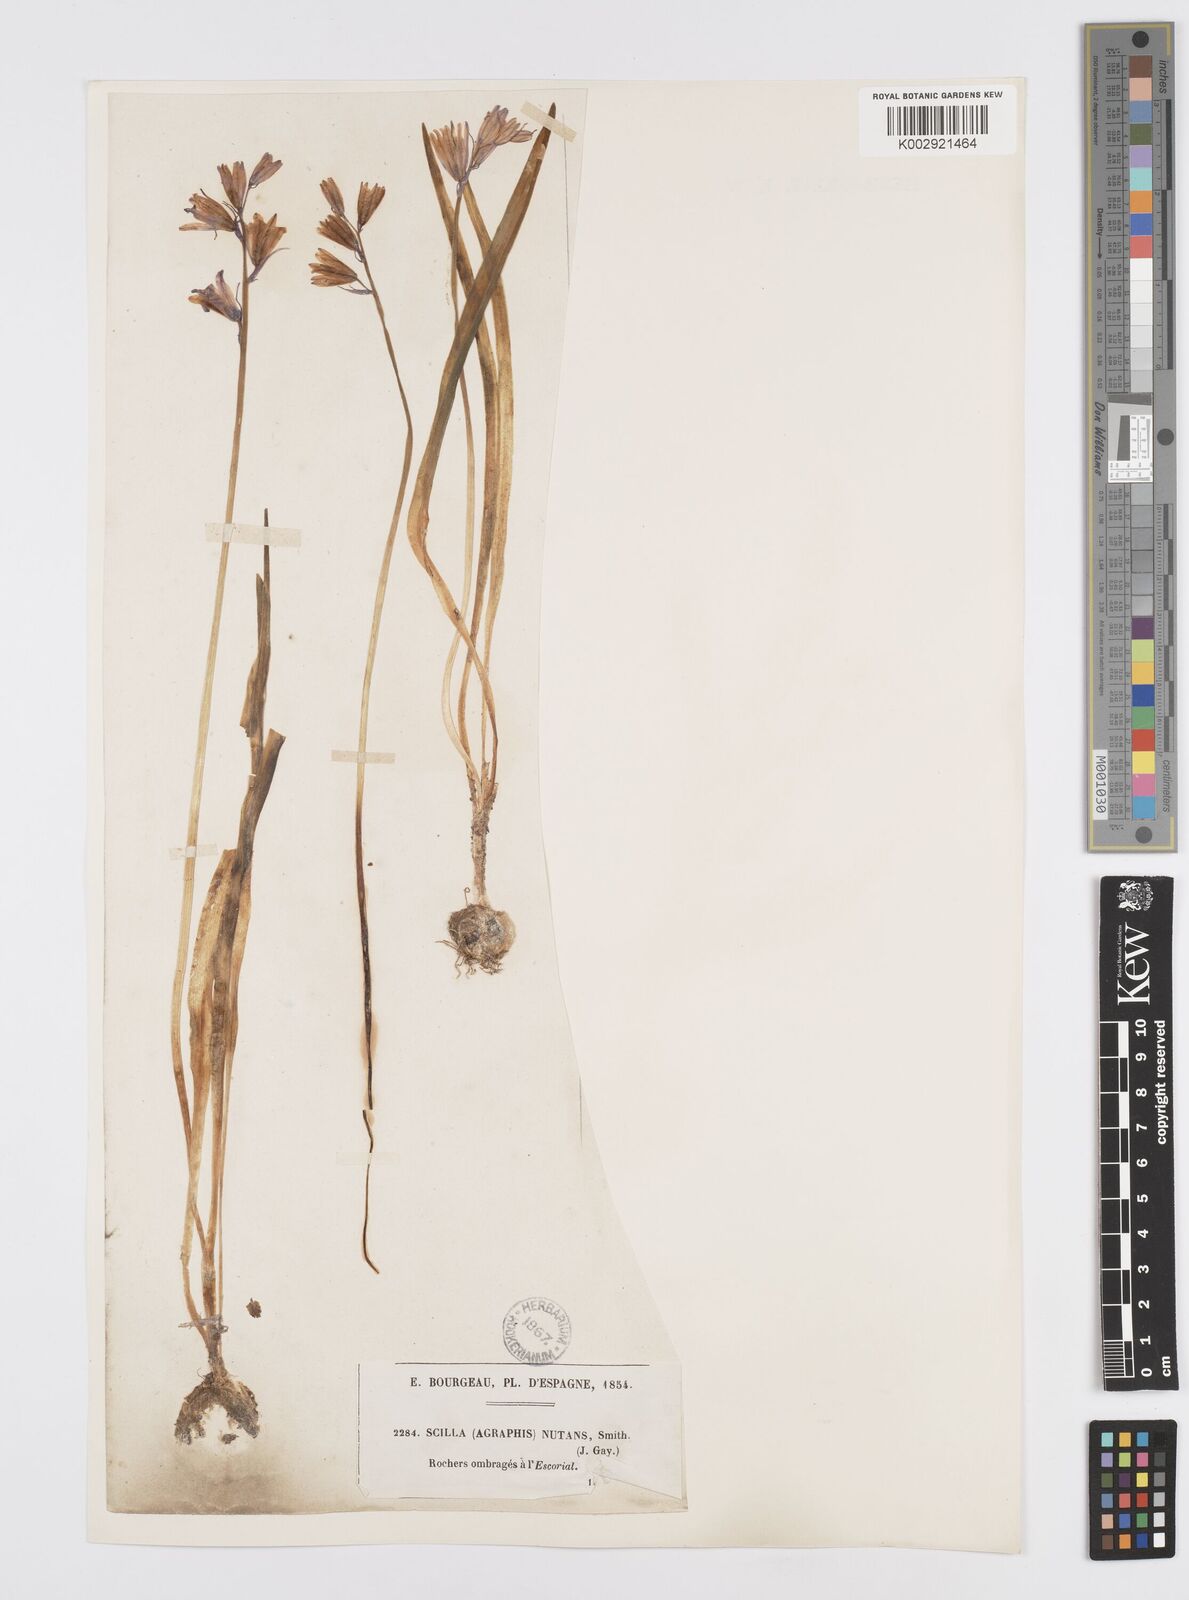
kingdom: Plantae
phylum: Tracheophyta
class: Liliopsida
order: Asparagales
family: Asparagaceae
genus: Hyacinthoides
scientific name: Hyacinthoides hispanica
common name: Spanish bluebell
